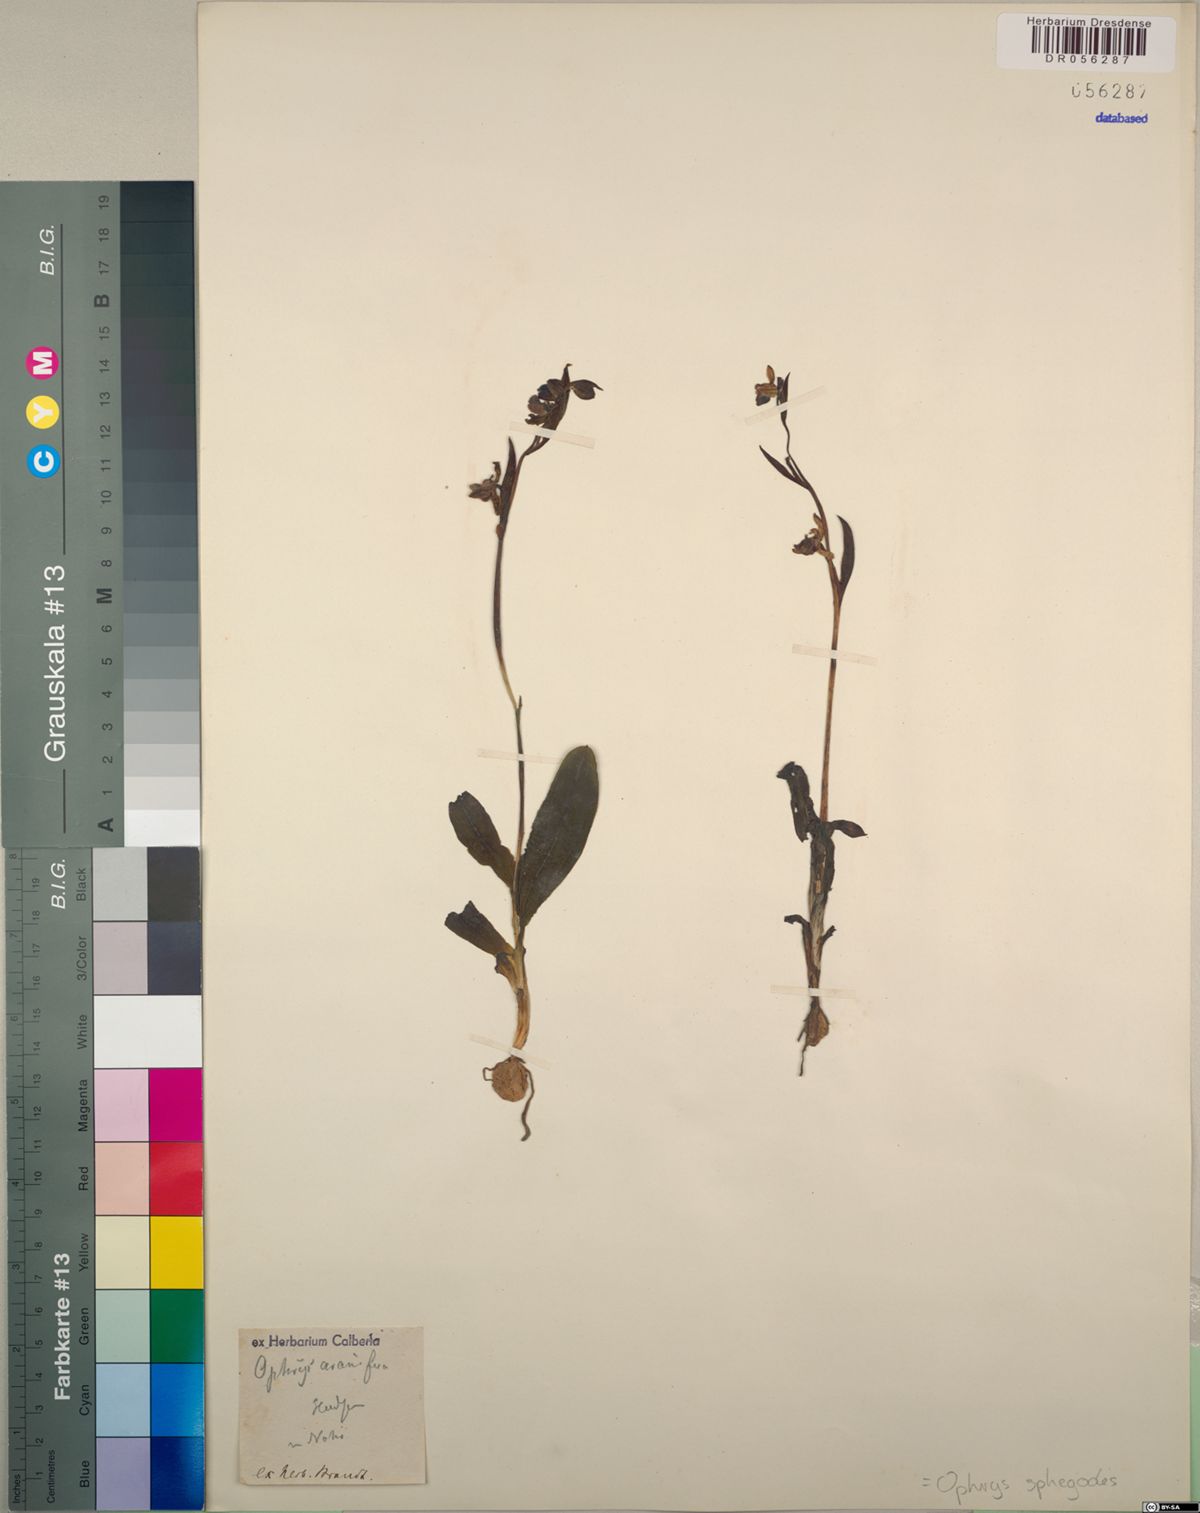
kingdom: Plantae
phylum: Tracheophyta
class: Liliopsida
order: Asparagales
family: Orchidaceae
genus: Ophrys
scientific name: Ophrys sphegodes
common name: Early spider-orchid
